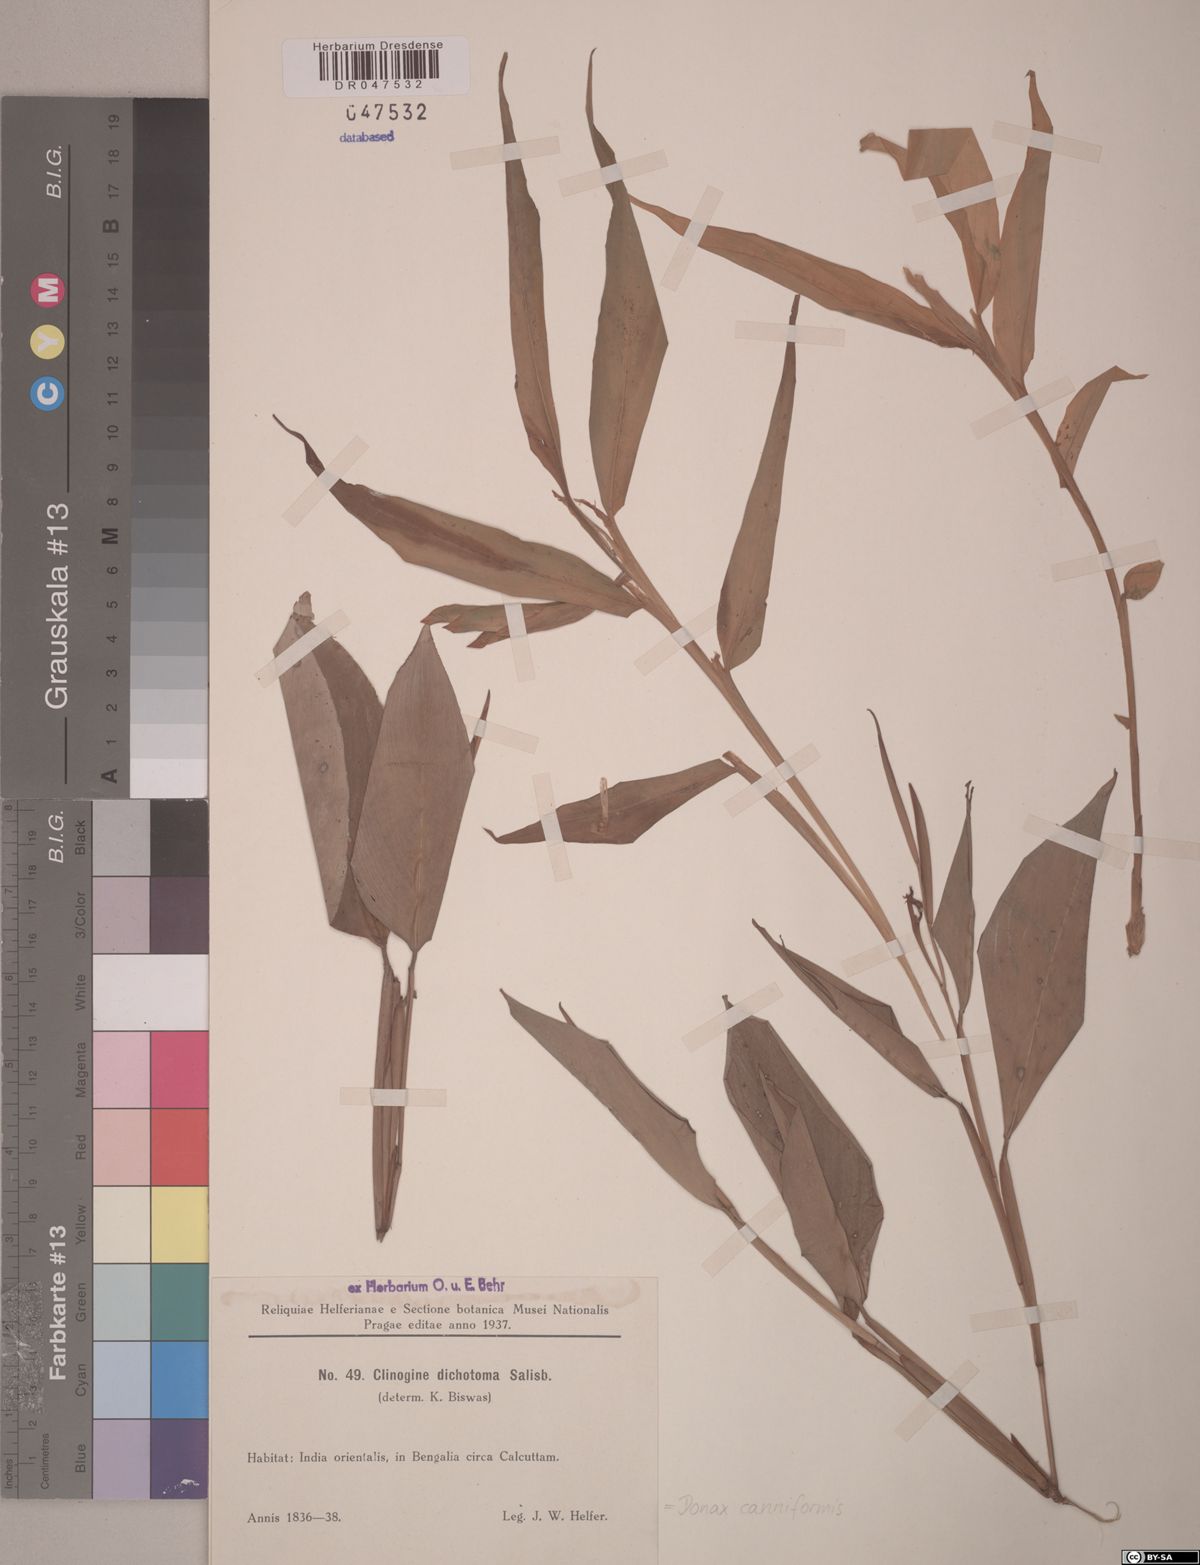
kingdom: Plantae
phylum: Tracheophyta
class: Liliopsida
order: Zingiberales
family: Marantaceae
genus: Donax
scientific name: Donax canniformis
